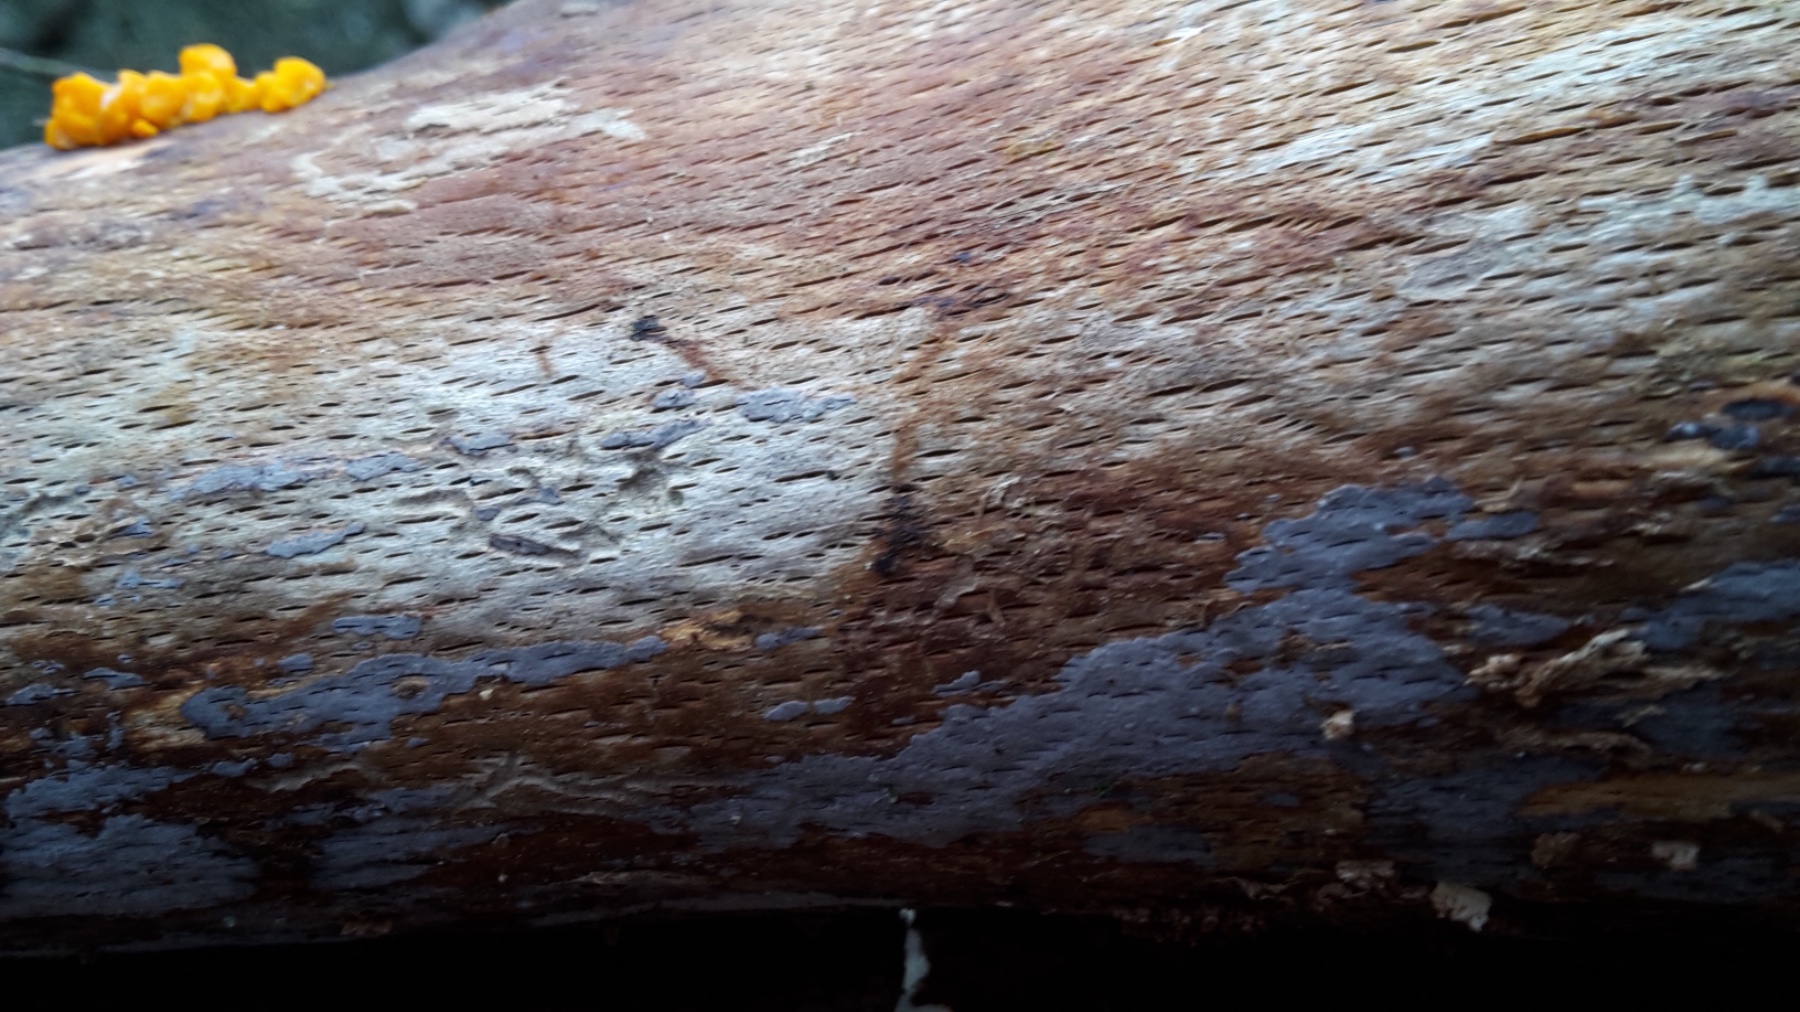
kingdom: Fungi
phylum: Basidiomycota
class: Tremellomycetes
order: Tremellales
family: Tremellaceae
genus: Tremella
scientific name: Tremella mesenterica
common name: gul bævresvamp
